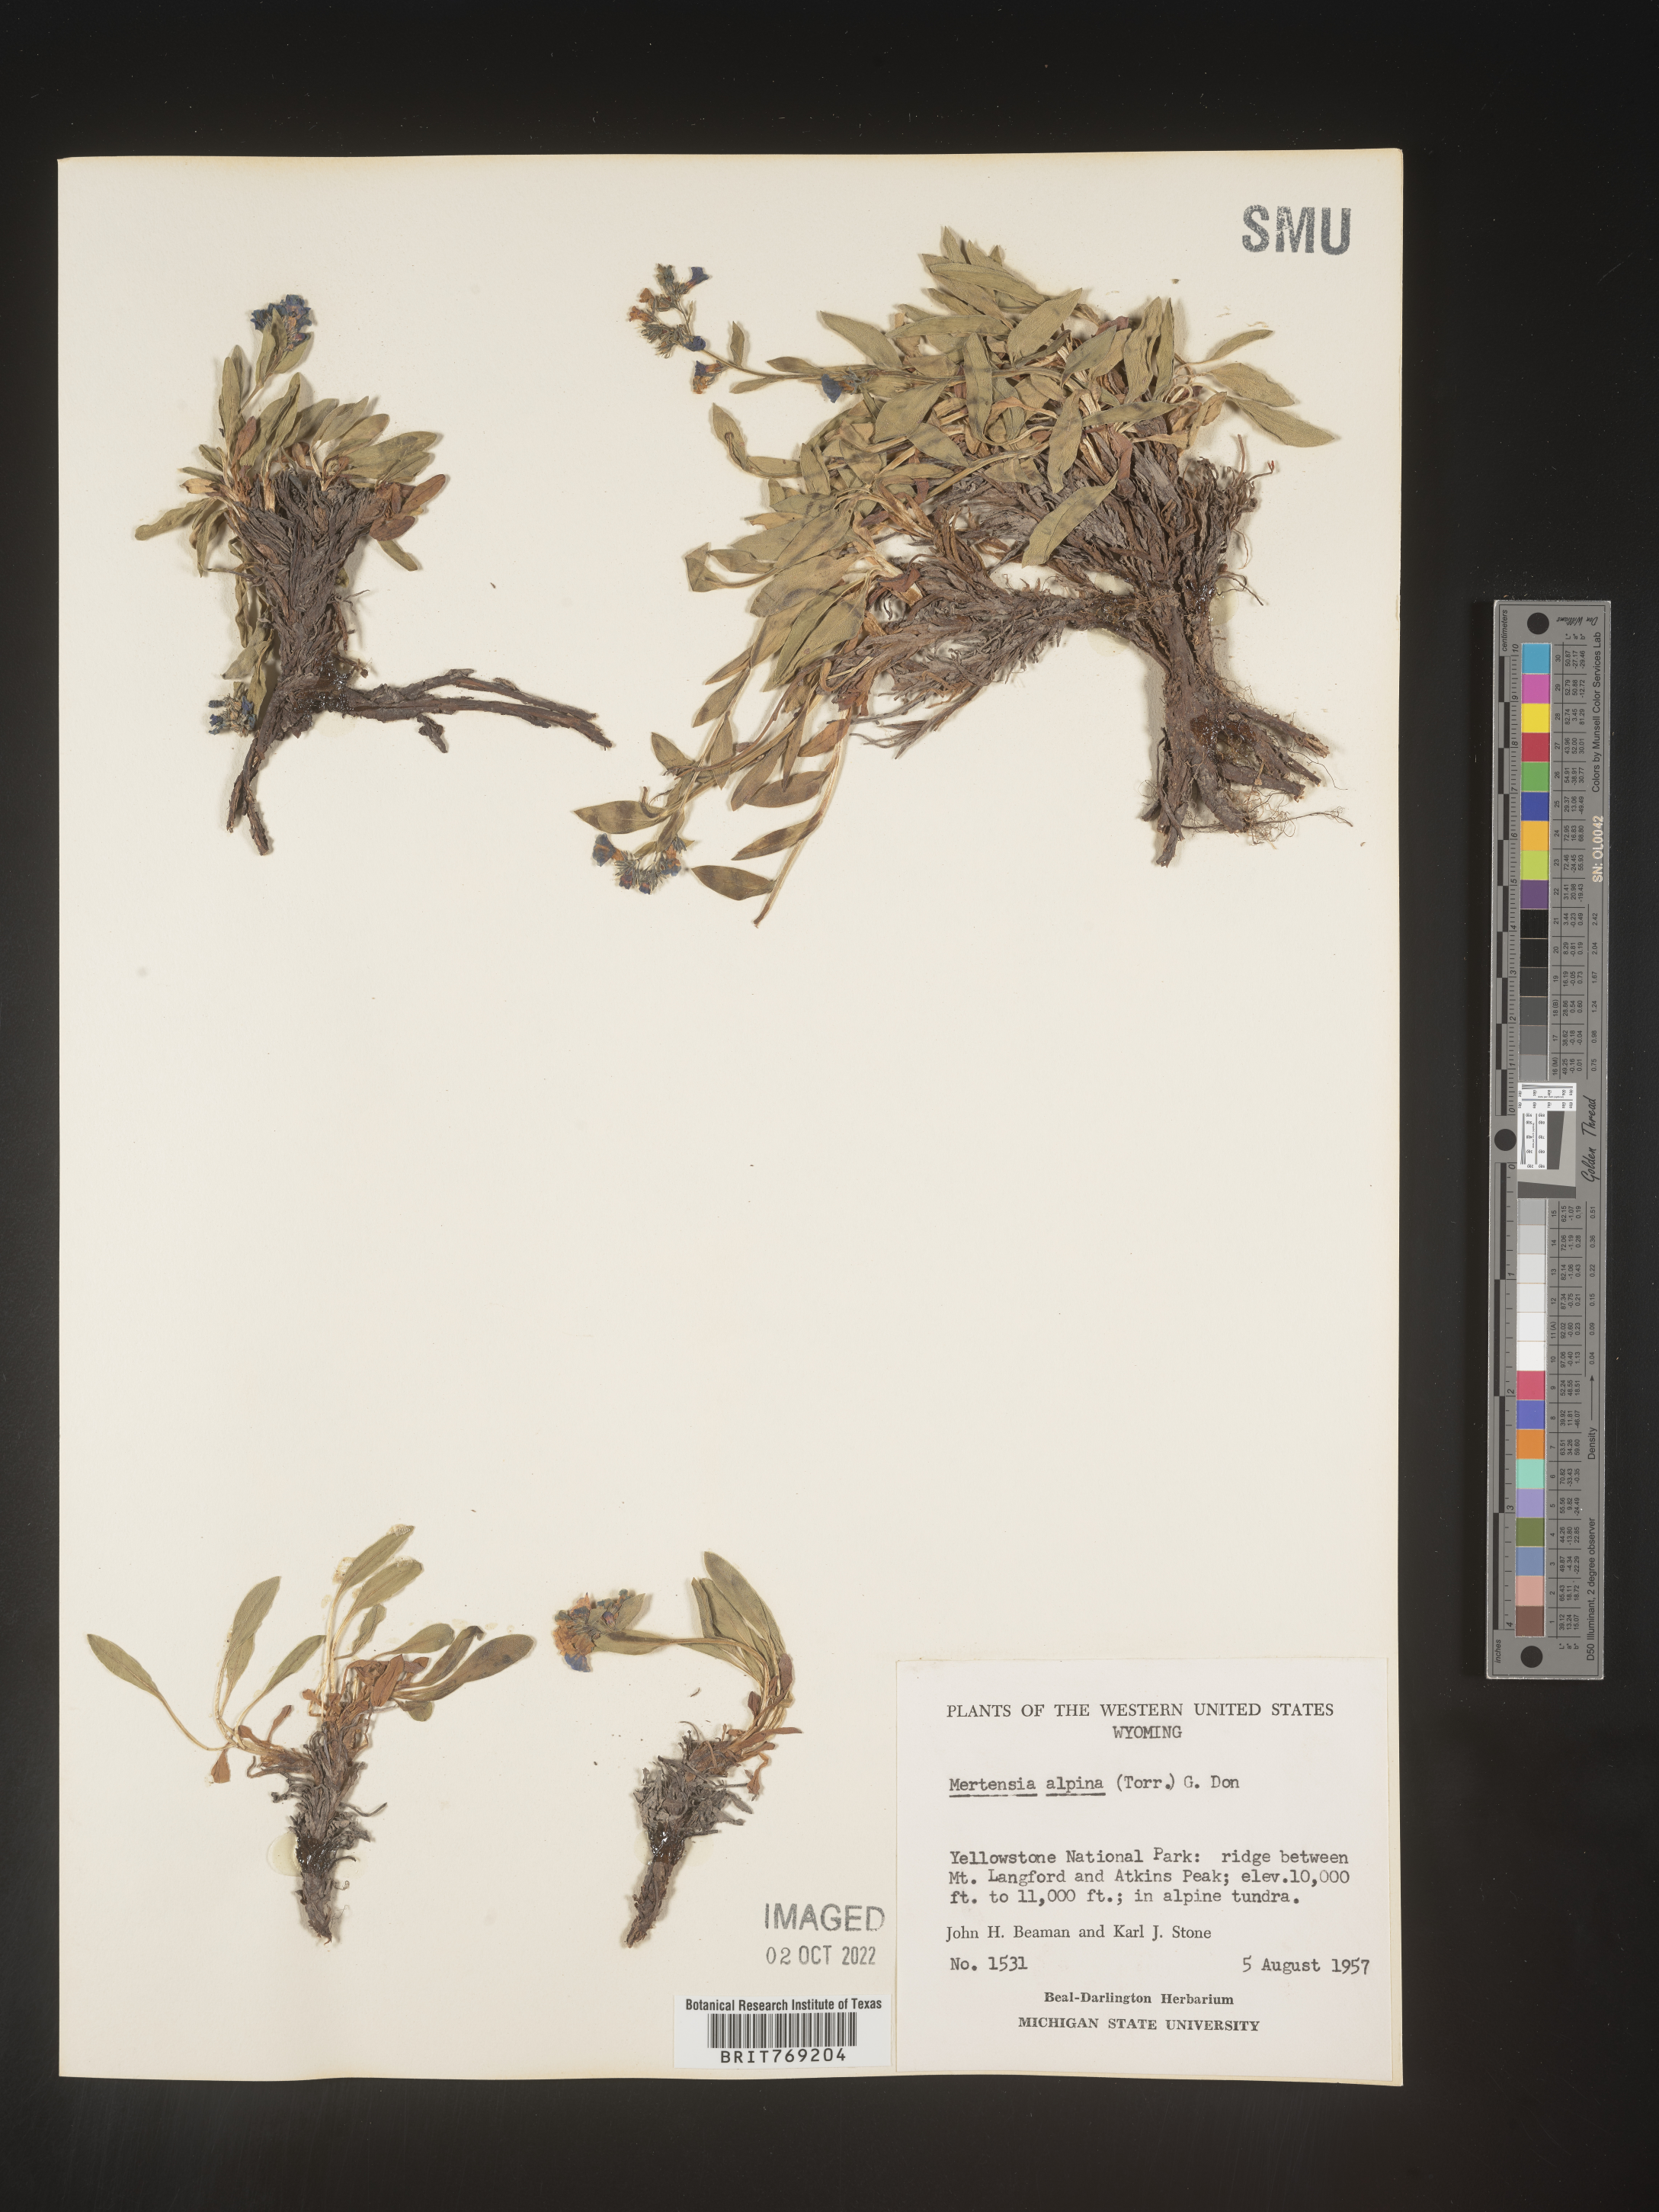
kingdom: Plantae
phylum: Tracheophyta
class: Magnoliopsida
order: Boraginales
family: Boraginaceae
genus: Mertensia
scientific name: Mertensia
